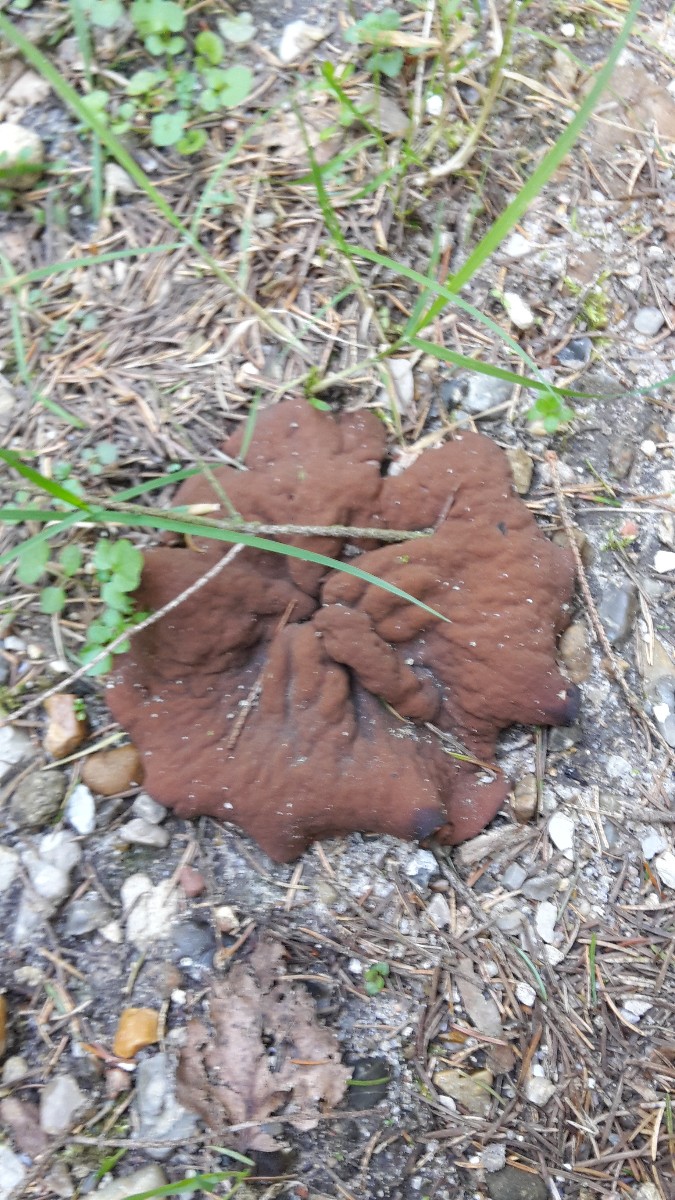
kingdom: Fungi
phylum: Ascomycota
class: Pezizomycetes
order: Pezizales
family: Discinaceae
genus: Discina
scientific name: Discina ancilis
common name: udbredt stenmorkel
